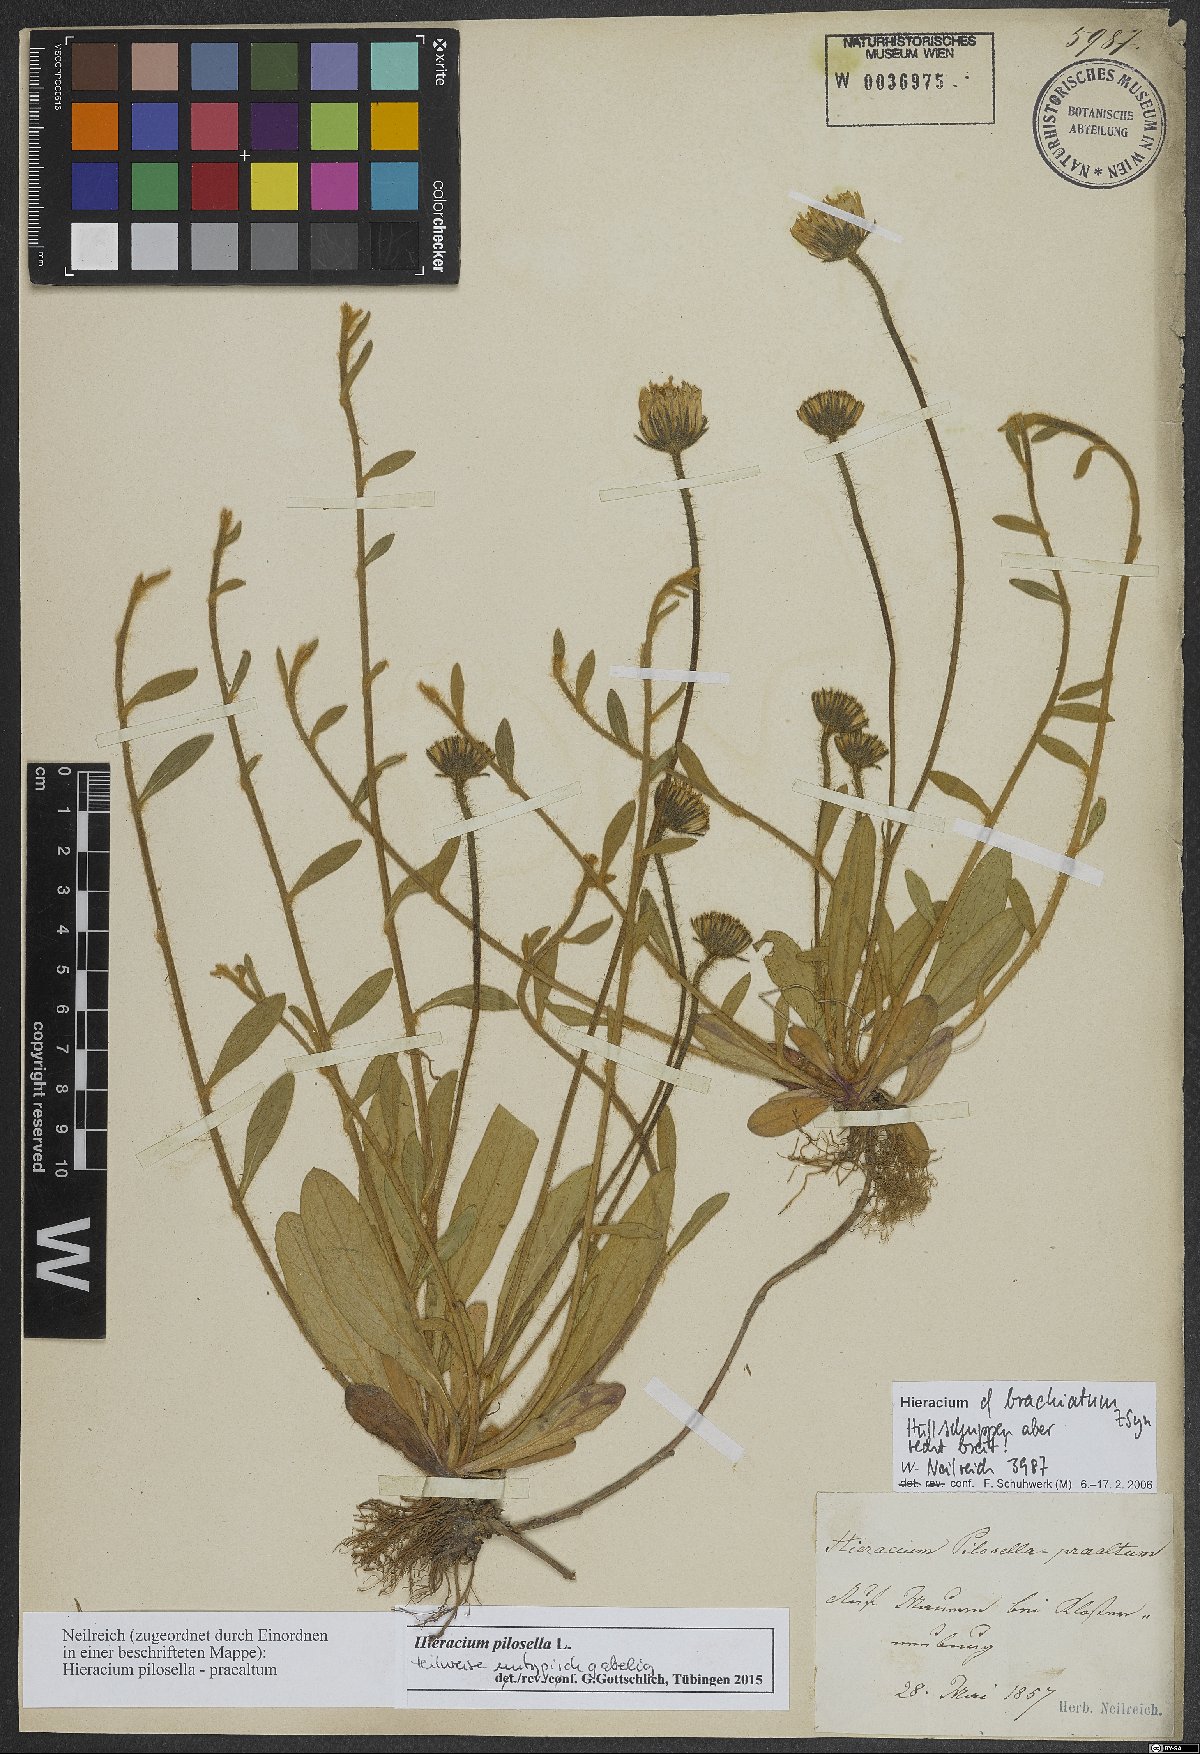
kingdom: Plantae
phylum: Tracheophyta
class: Magnoliopsida
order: Asterales
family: Asteraceae
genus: Pilosella
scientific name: Pilosella officinarum
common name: Mouse-ear hawkweed
